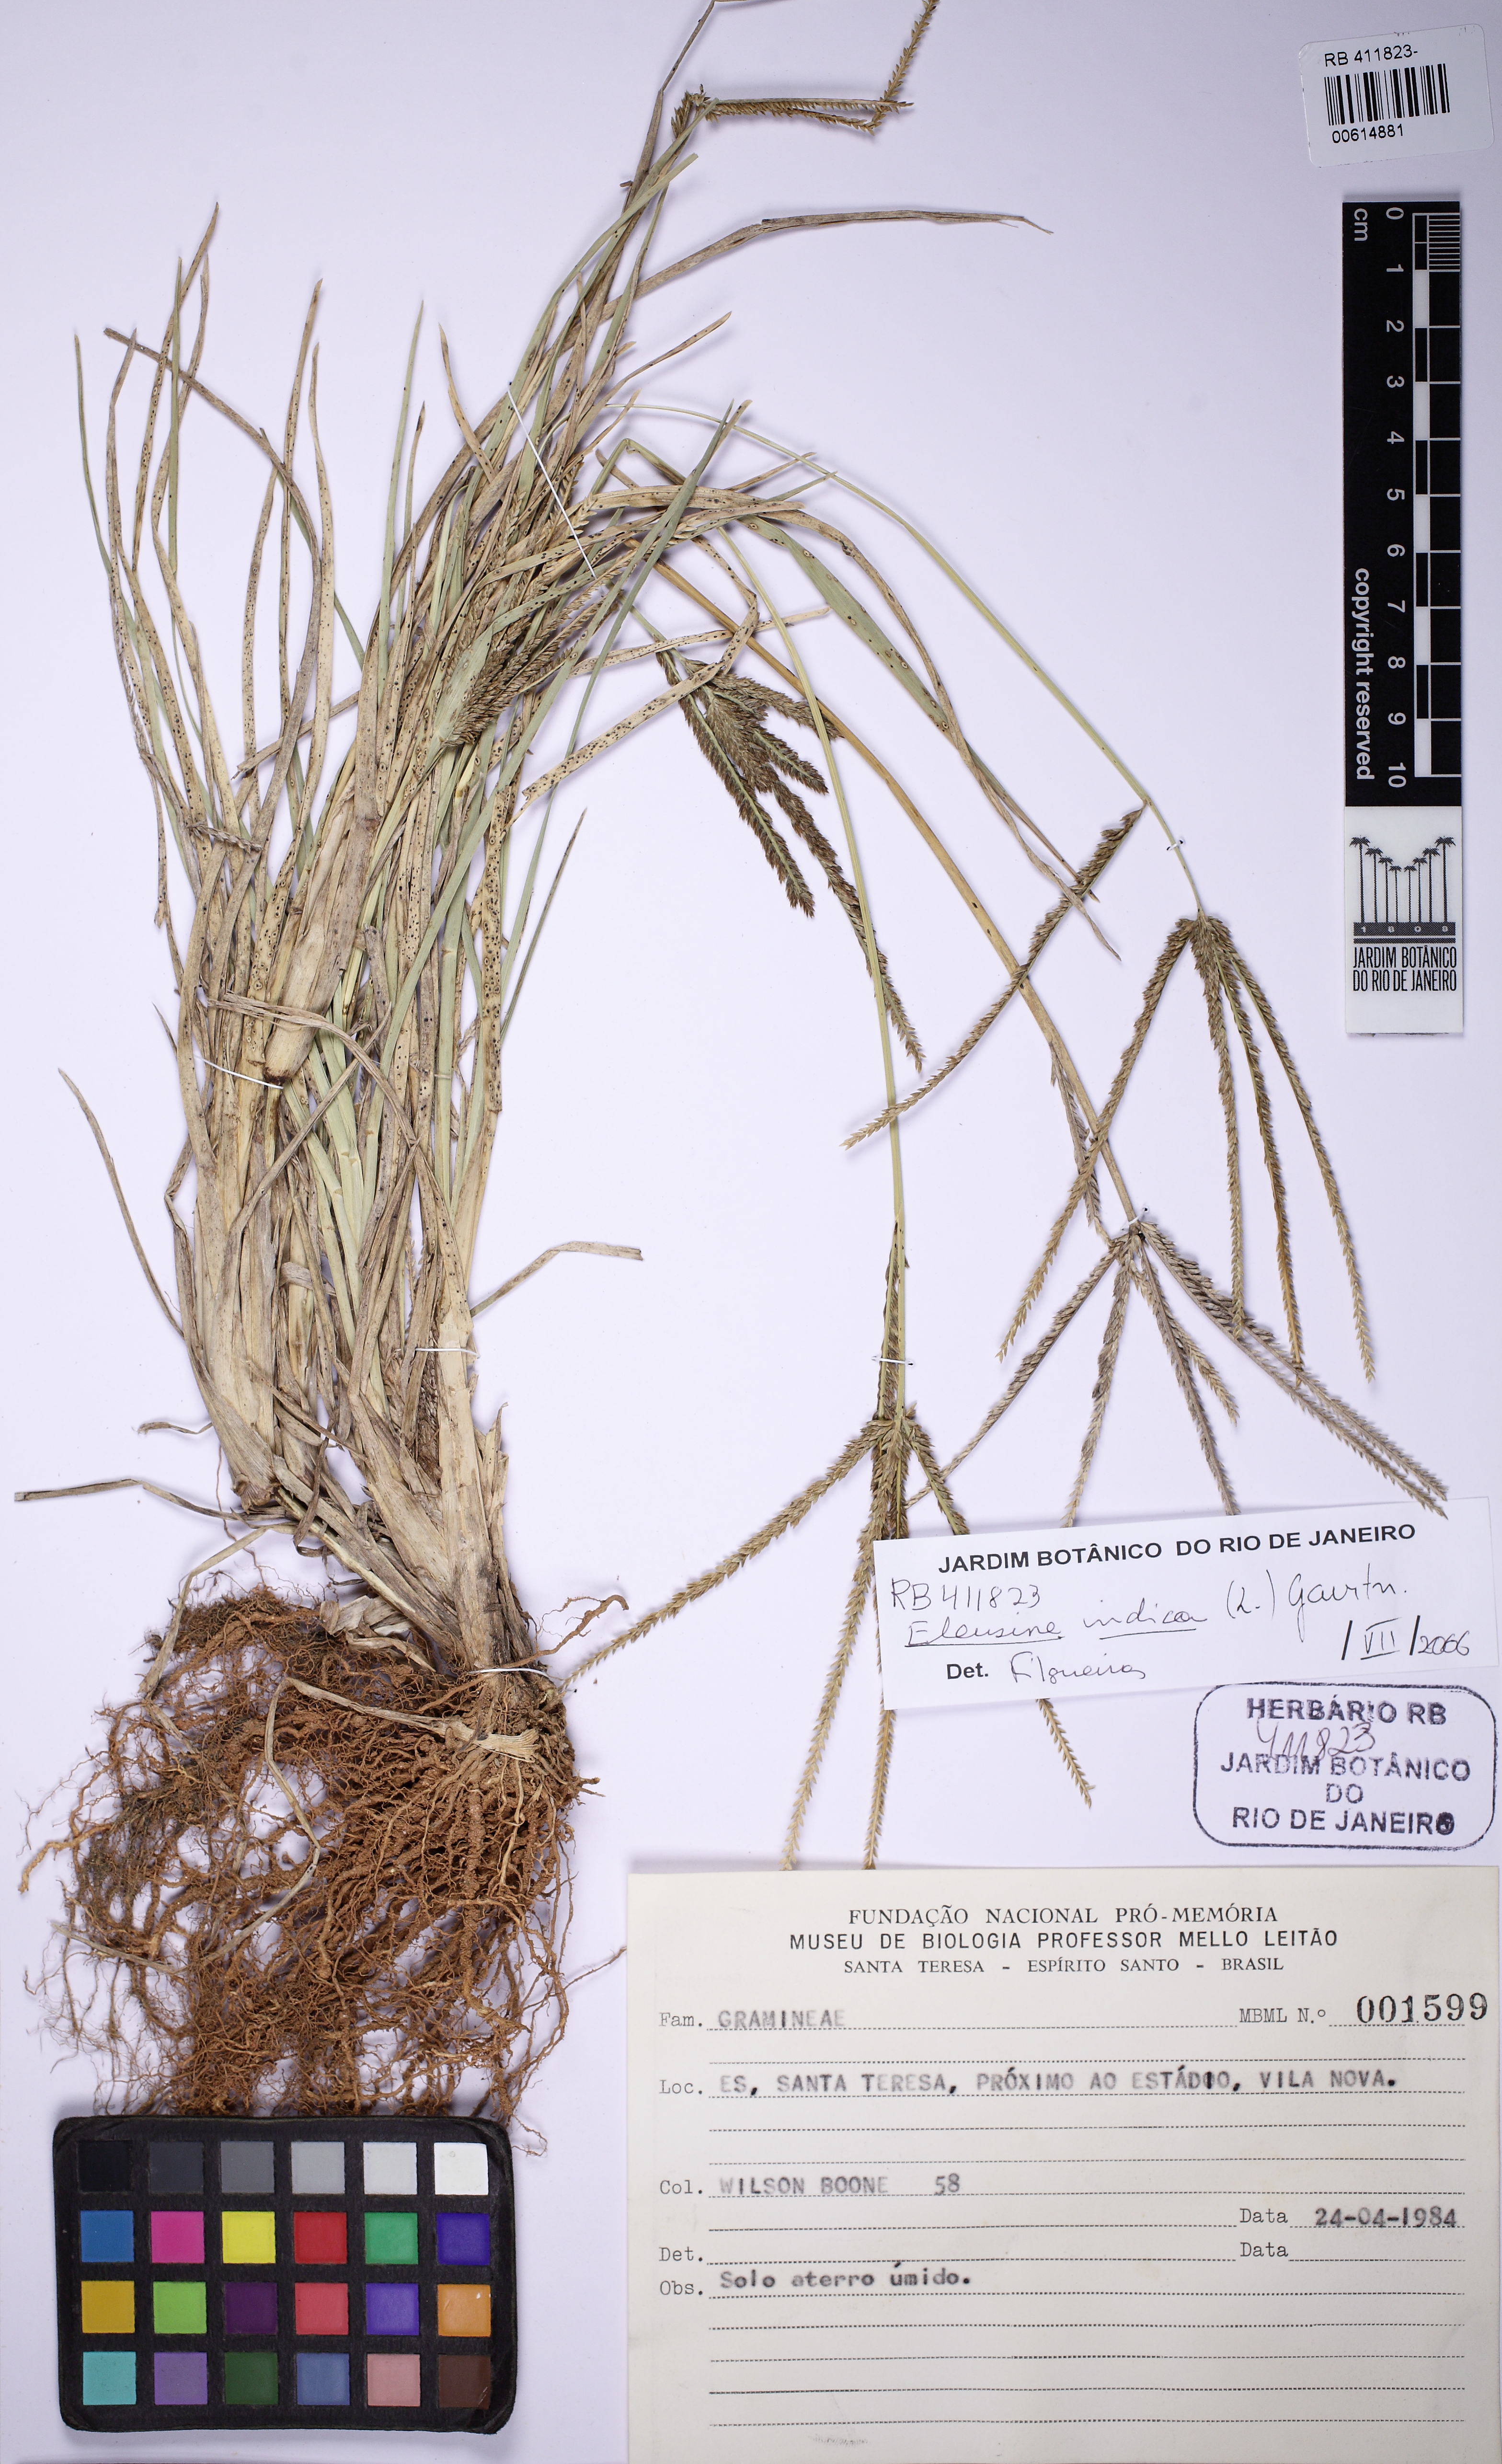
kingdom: Plantae
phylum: Tracheophyta
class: Liliopsida
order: Poales
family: Poaceae
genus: Eleusine
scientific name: Eleusine indica
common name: Yard-grass
